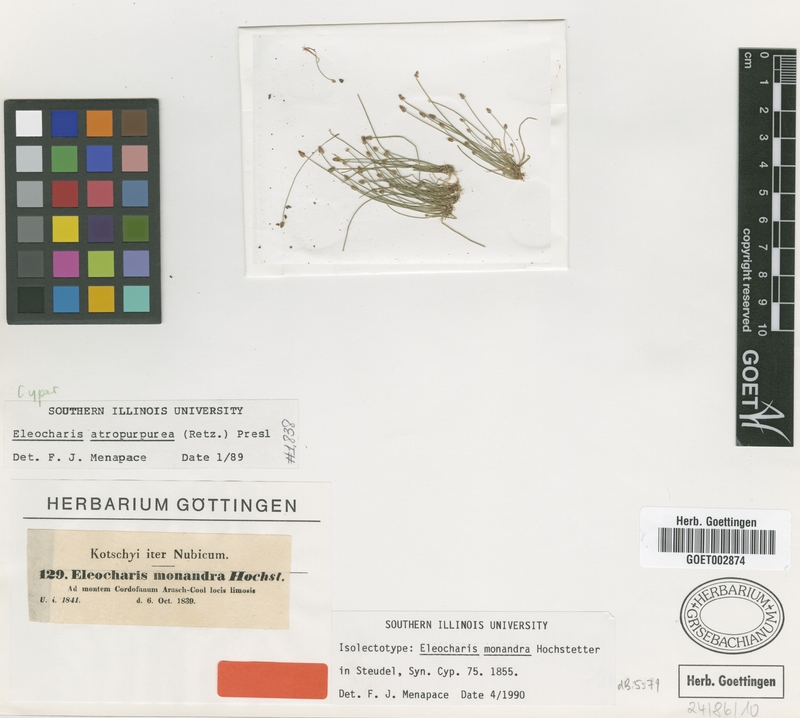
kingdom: Plantae
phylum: Tracheophyta
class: Liliopsida
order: Poales
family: Cyperaceae
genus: Eleocharis
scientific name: Eleocharis atropurpurea
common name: Purple spikerush
